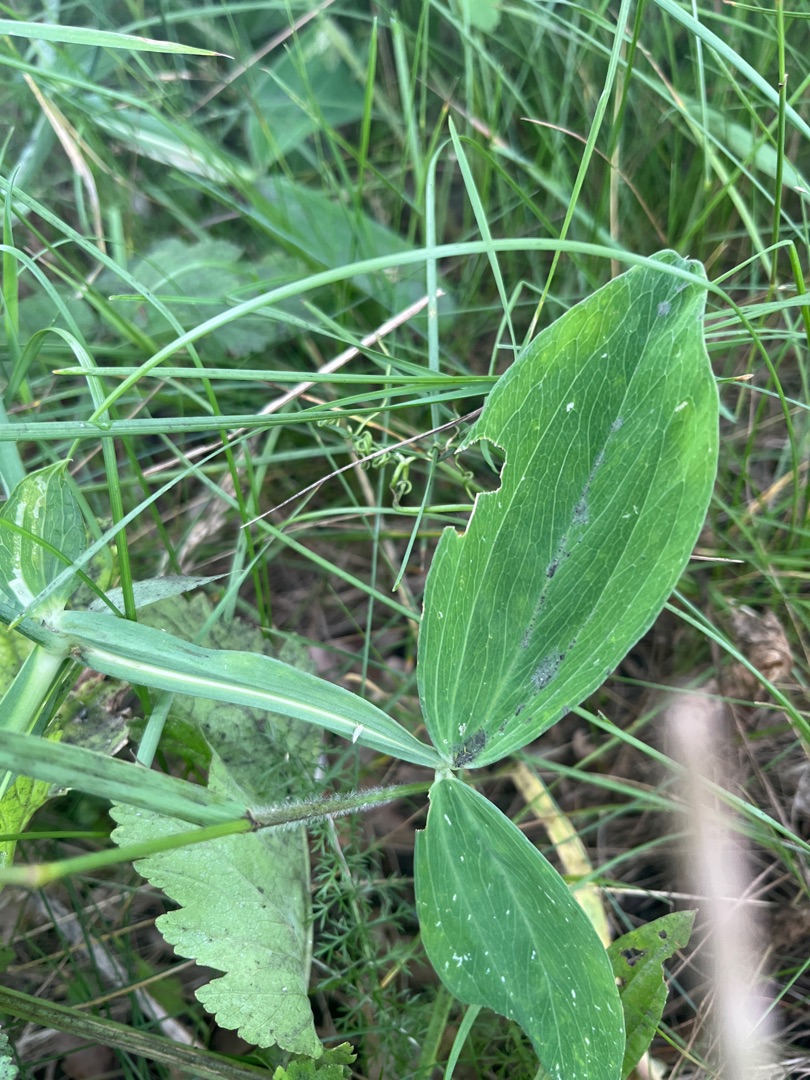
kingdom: Plantae
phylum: Tracheophyta
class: Magnoliopsida
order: Fabales
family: Fabaceae
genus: Lathyrus
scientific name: Lathyrus latifolius
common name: Flerårig ærteblomst
